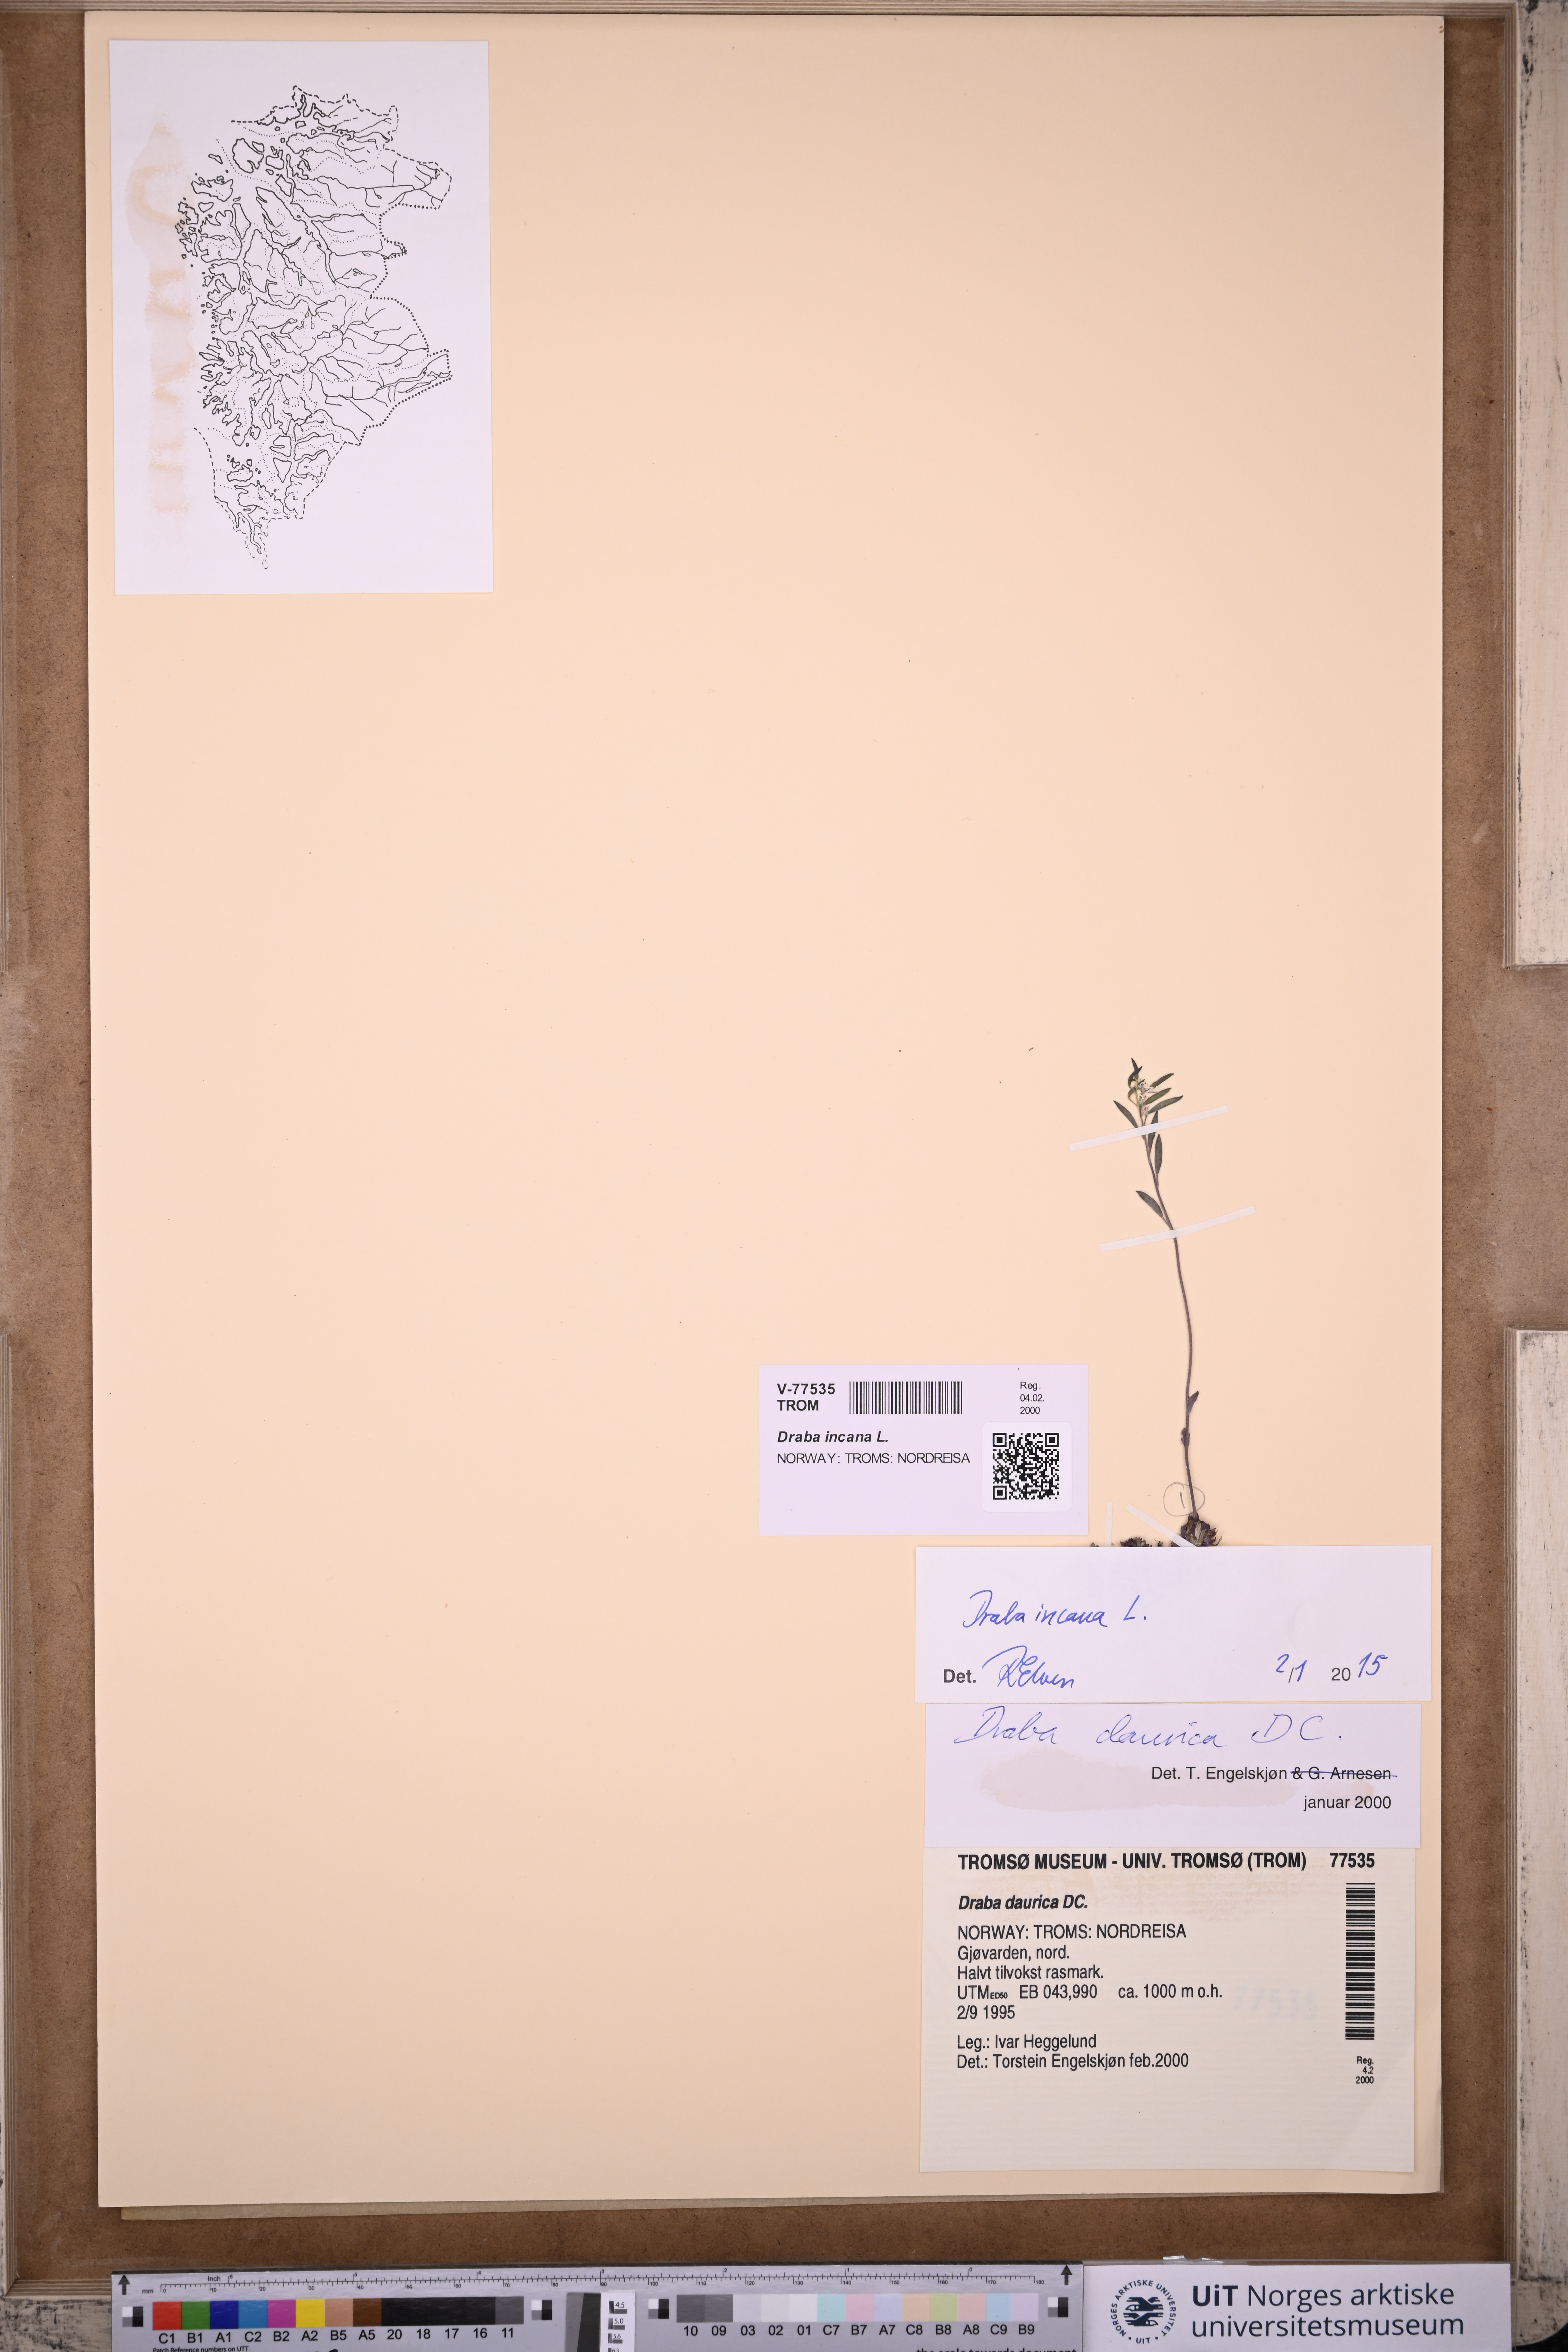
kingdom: Plantae
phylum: Tracheophyta
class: Magnoliopsida
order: Brassicales
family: Brassicaceae
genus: Draba
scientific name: Draba incana
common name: Hoary whitlow-grass
